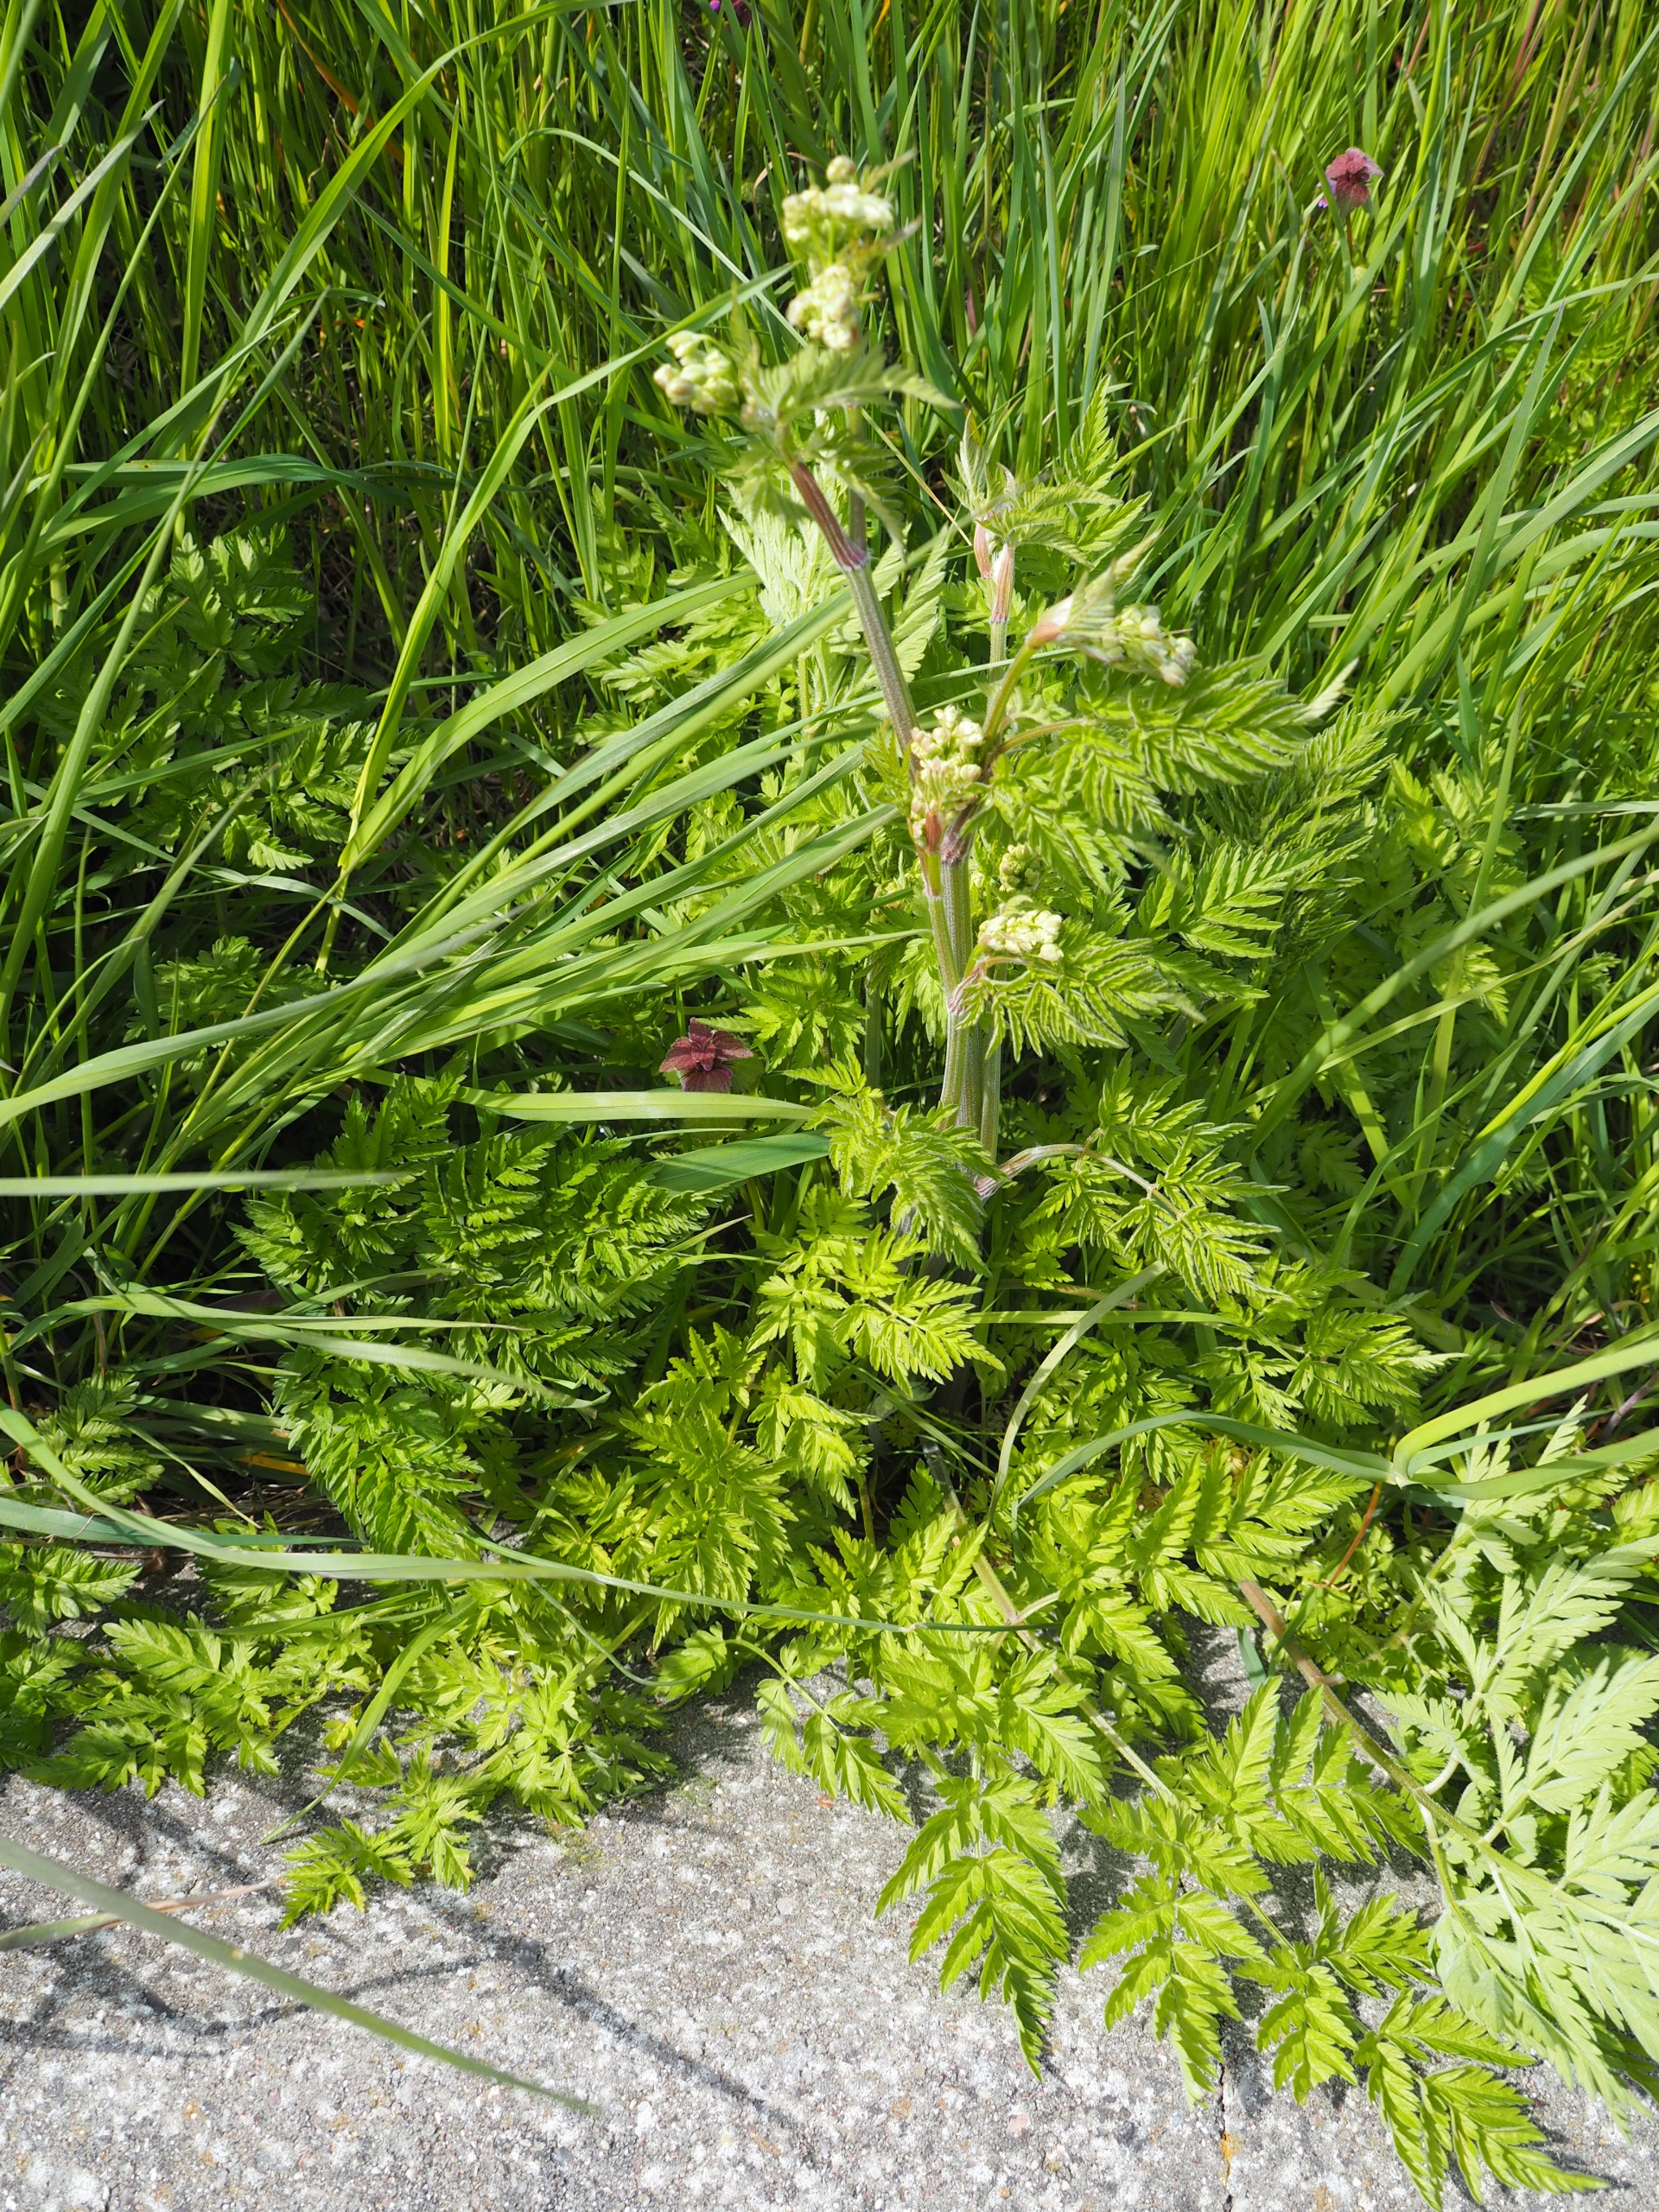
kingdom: Plantae
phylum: Tracheophyta
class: Magnoliopsida
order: Apiales
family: Apiaceae
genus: Anthriscus
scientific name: Anthriscus sylvestris
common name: Vild kørvel
